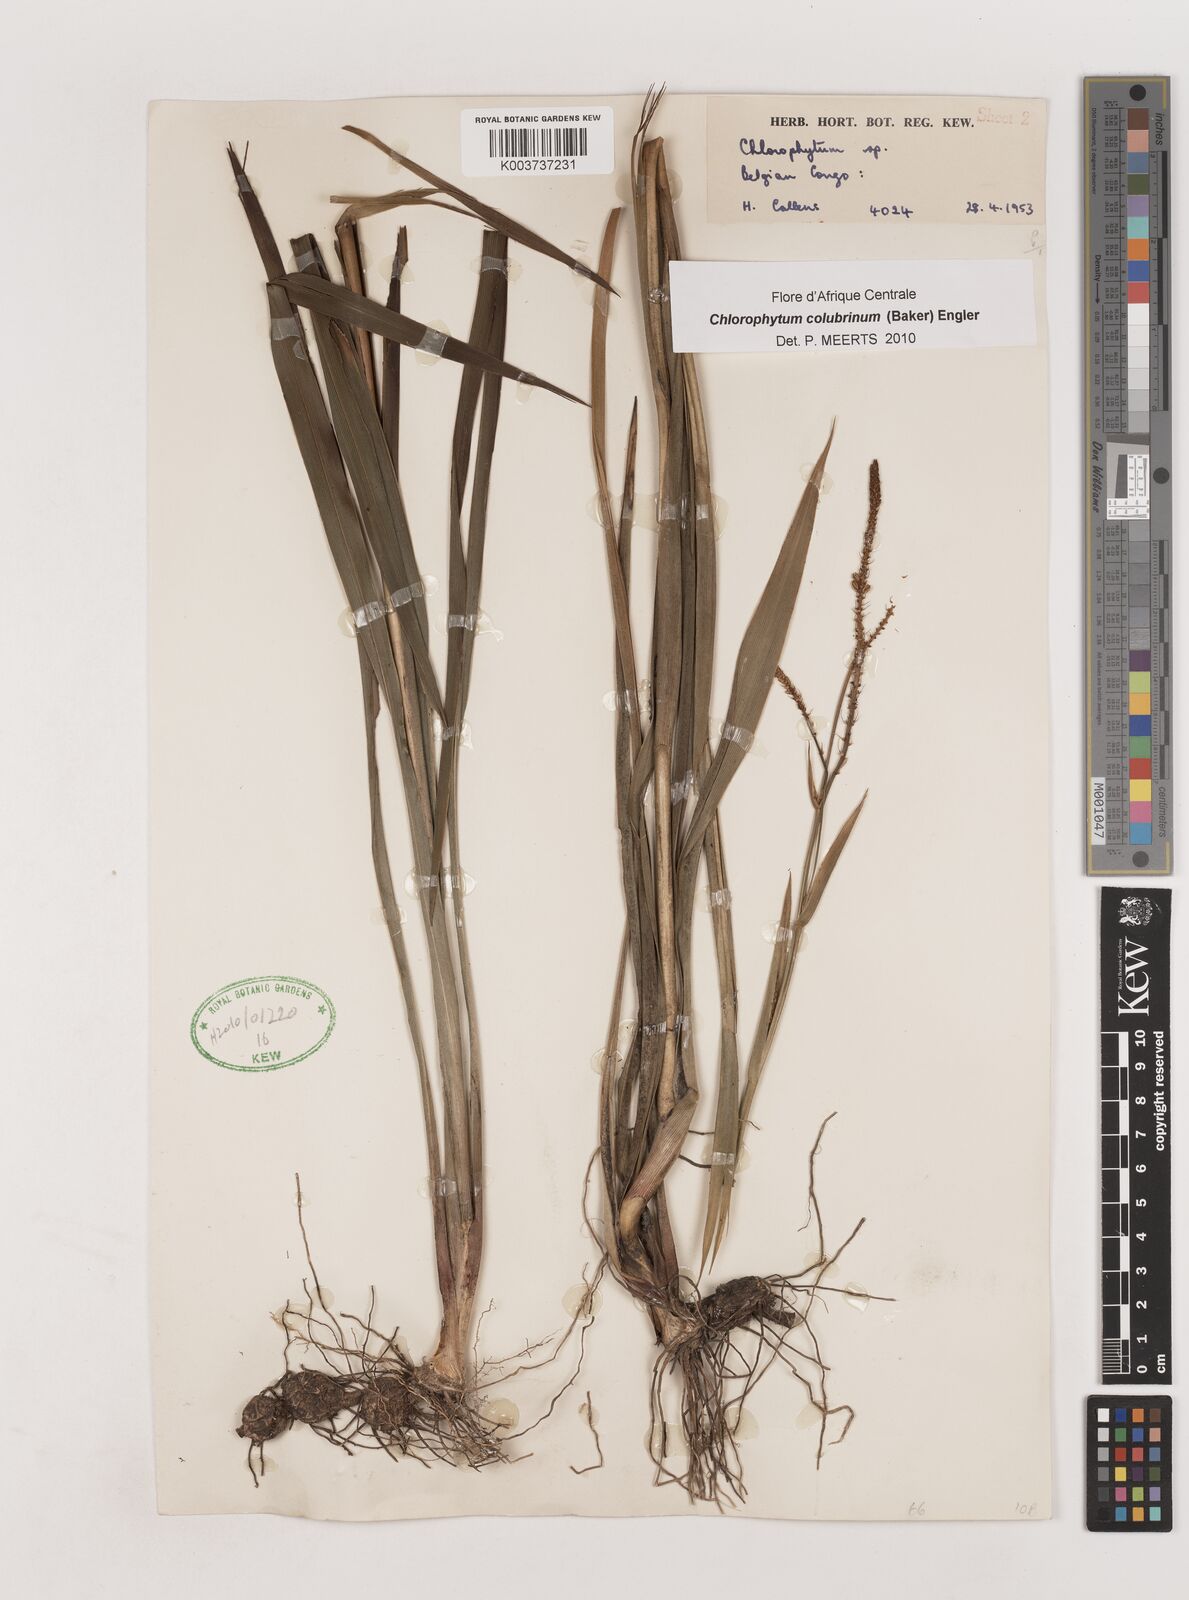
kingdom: Plantae
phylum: Tracheophyta
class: Liliopsida
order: Asparagales
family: Asparagaceae
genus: Chlorophytum
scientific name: Chlorophytum colubrinum
